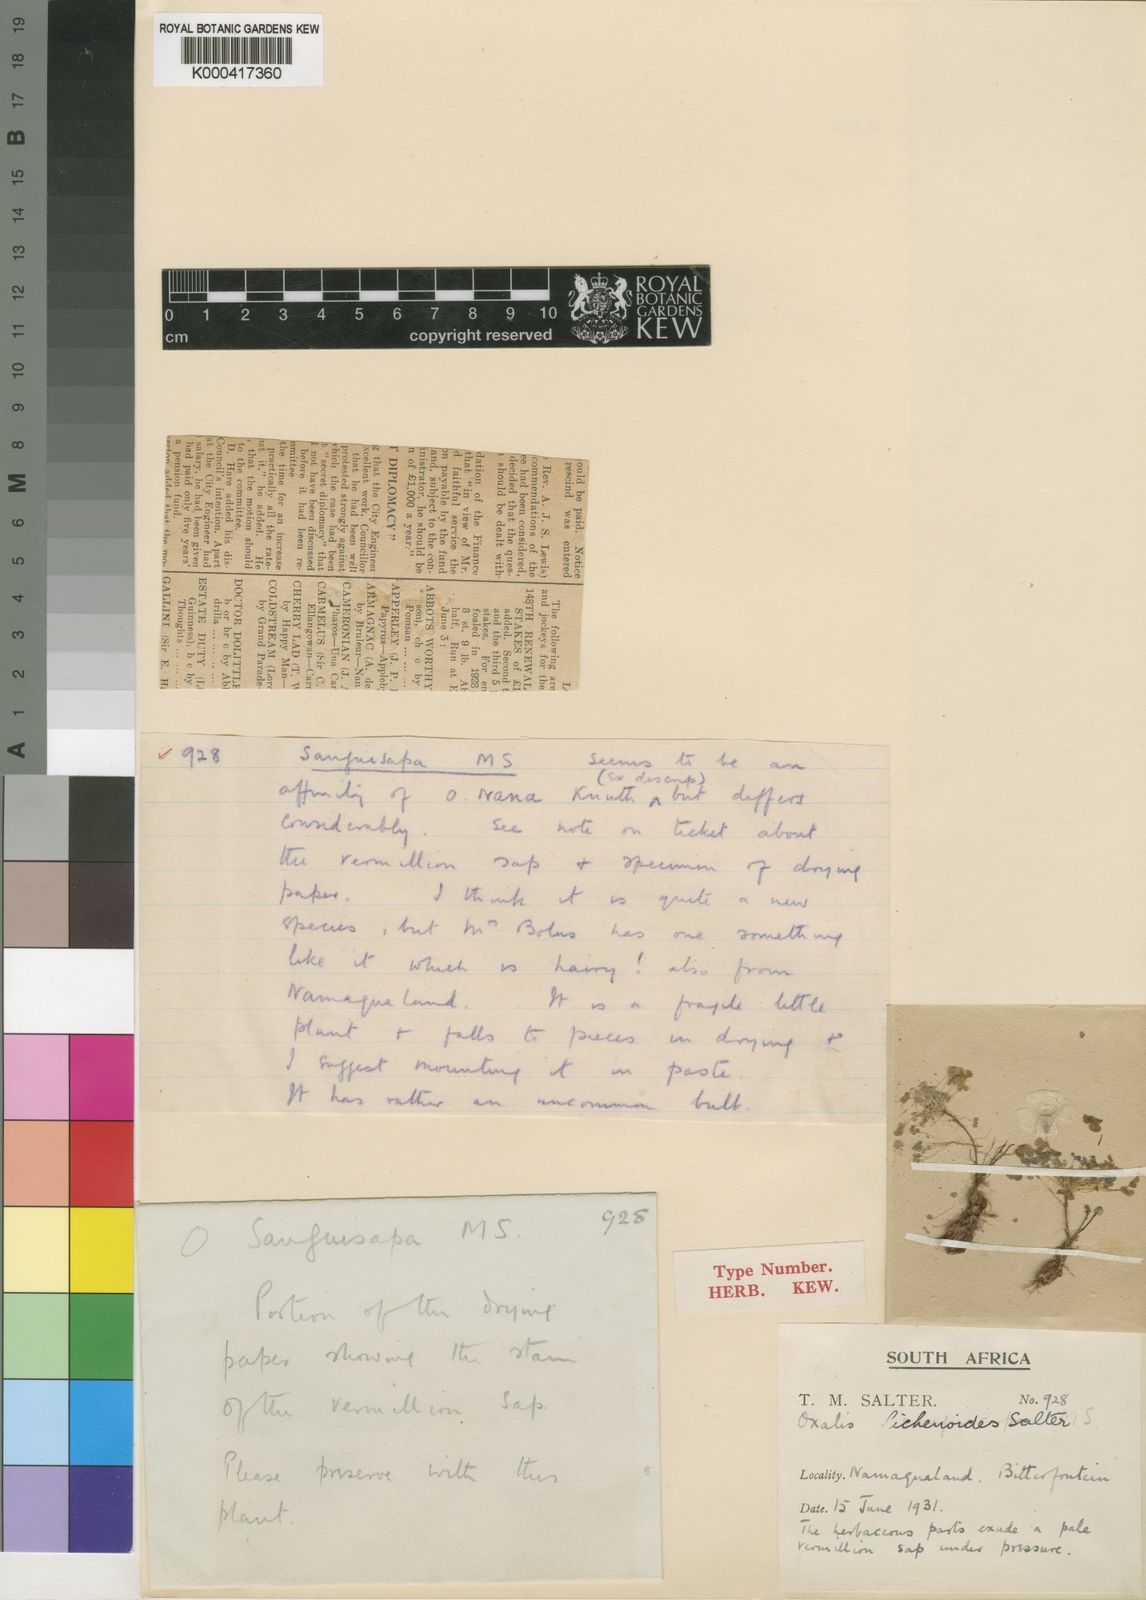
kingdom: Plantae
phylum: Tracheophyta
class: Magnoliopsida
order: Oxalidales
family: Oxalidaceae
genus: Oxalis
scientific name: Oxalis lichenoides
